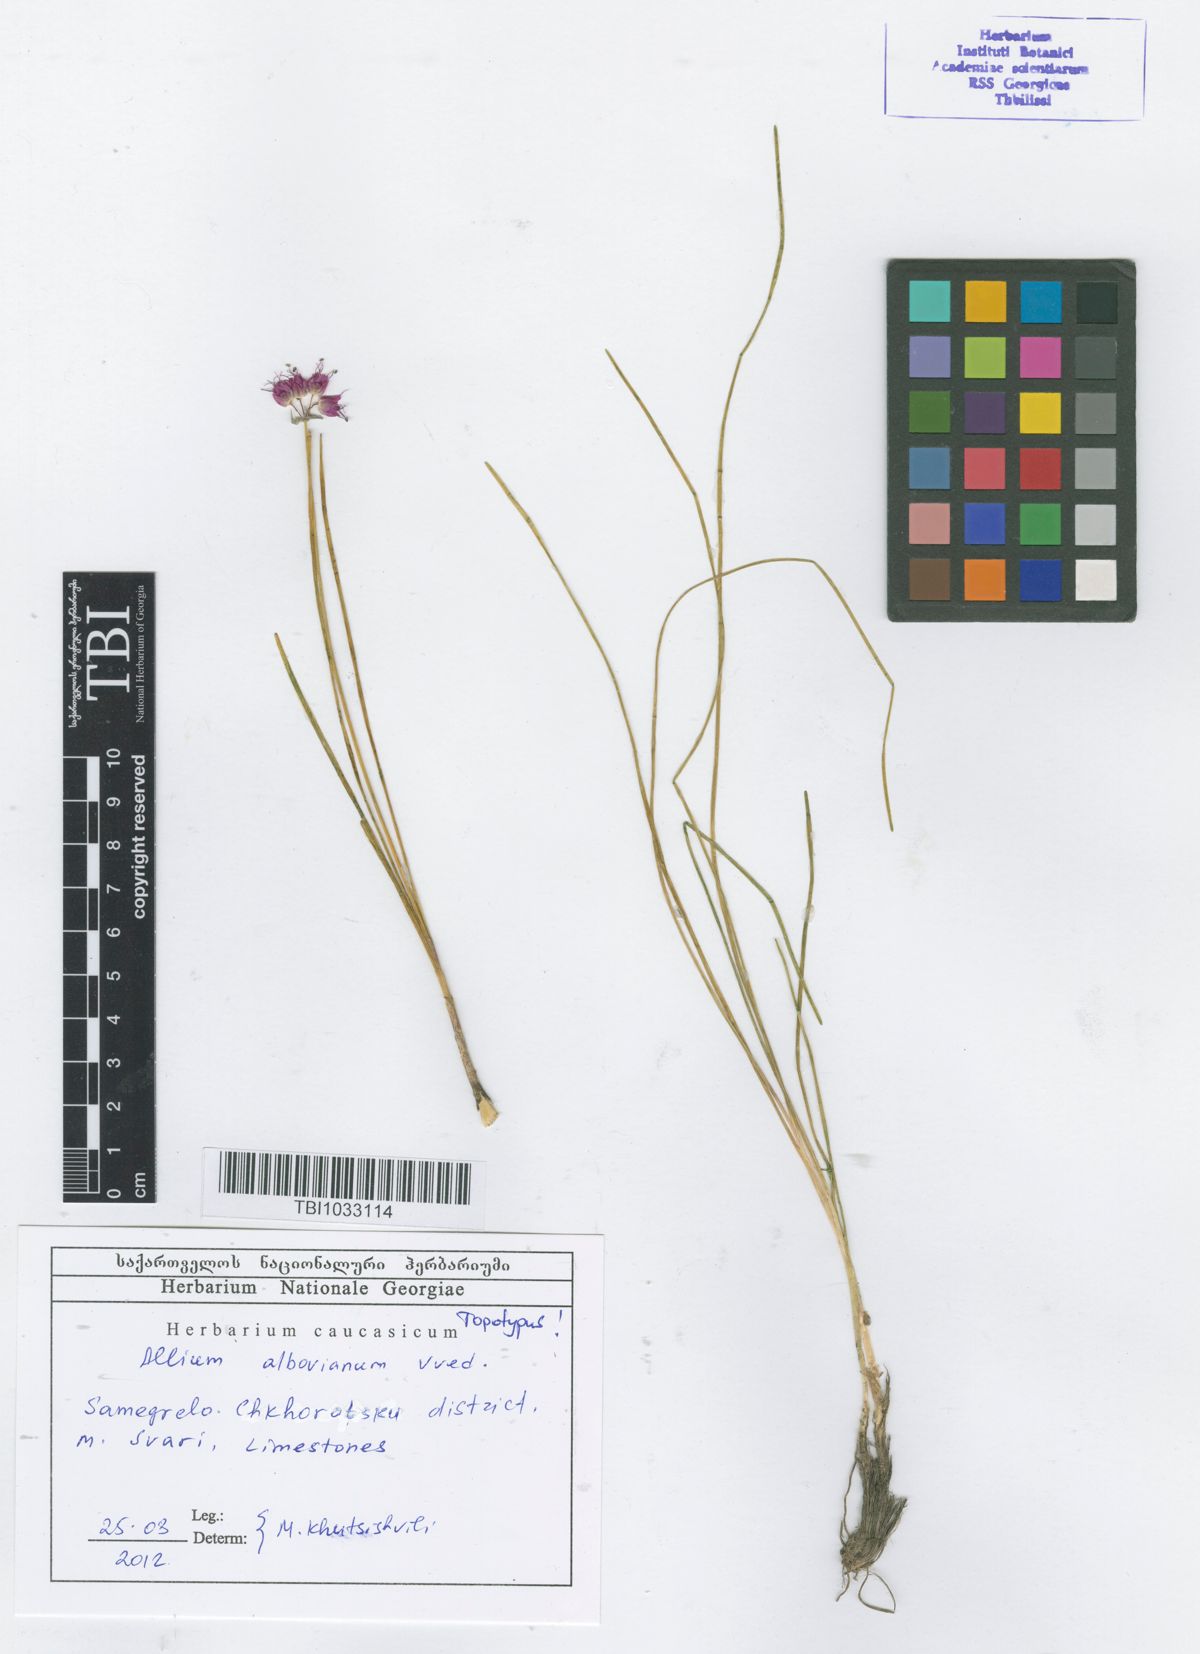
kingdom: Plantae
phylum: Tracheophyta
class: Liliopsida
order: Asparagales
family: Amaryllidaceae
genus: Allium
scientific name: Allium albovianum
